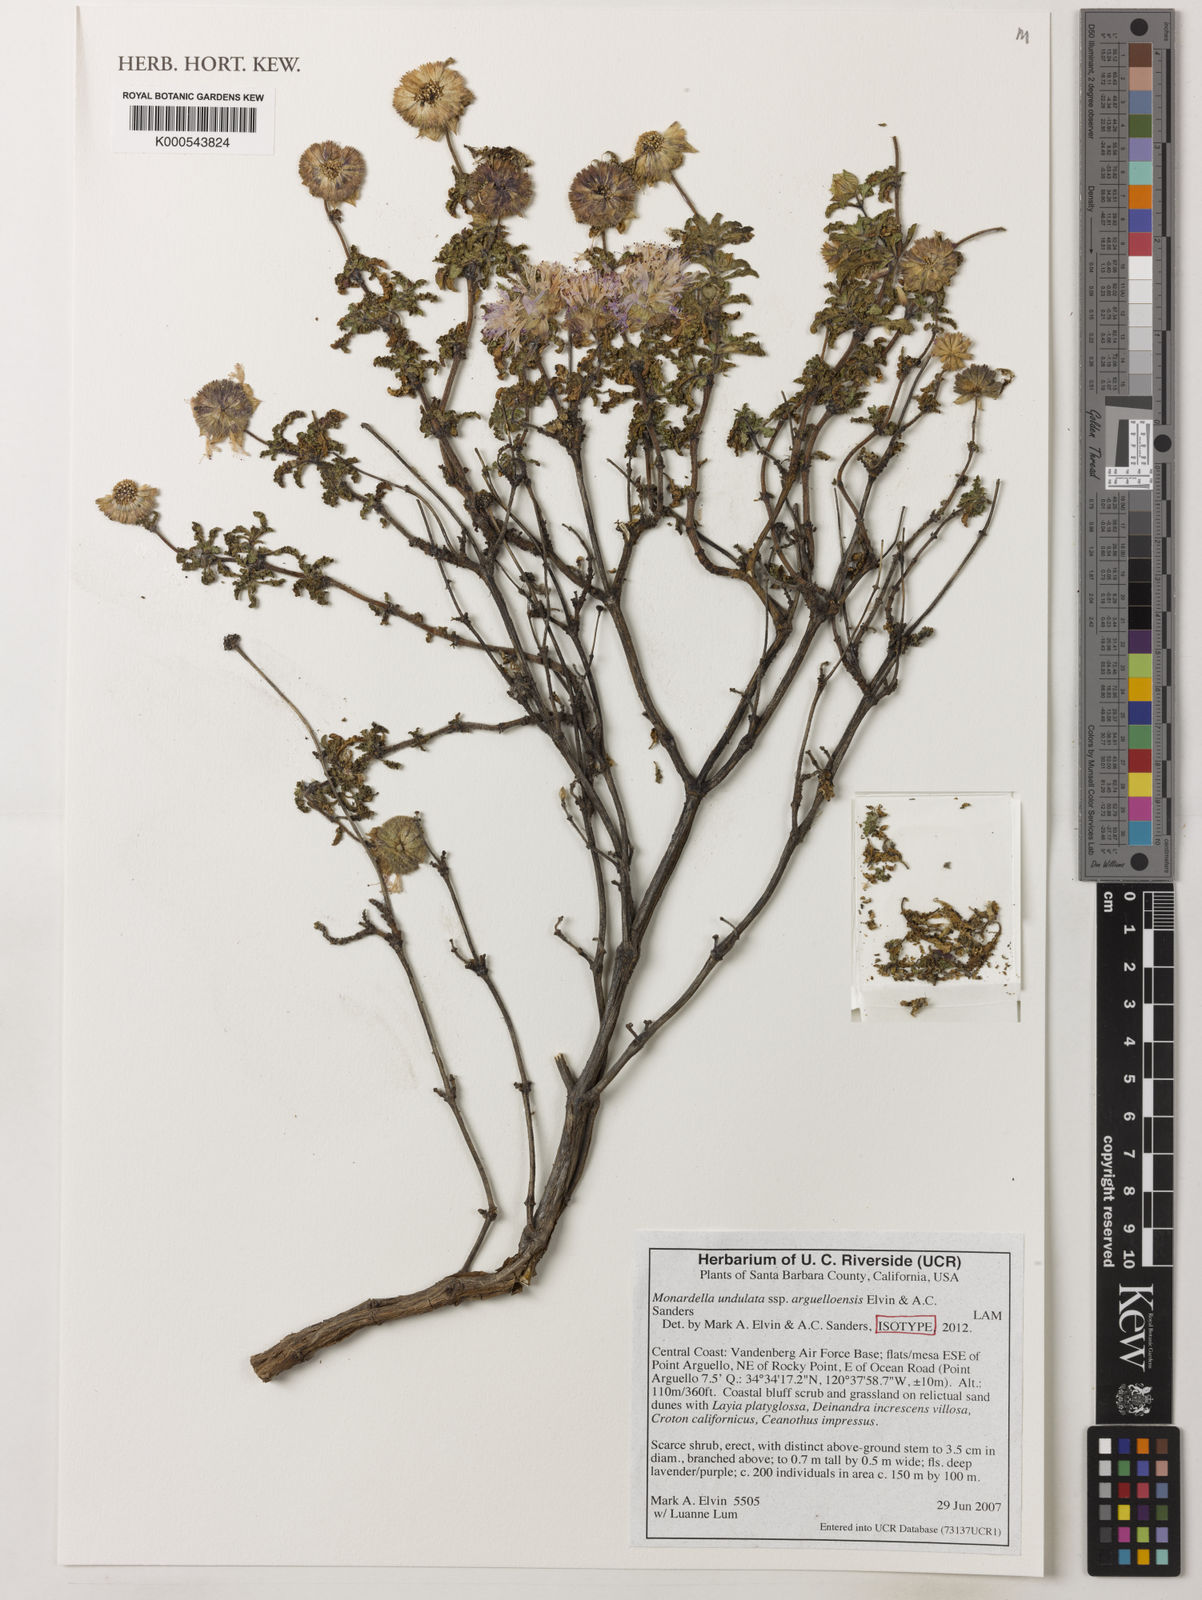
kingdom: Plantae
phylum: Tracheophyta
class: Magnoliopsida
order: Lamiales
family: Lamiaceae
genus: Monardella
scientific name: Monardella undulata
